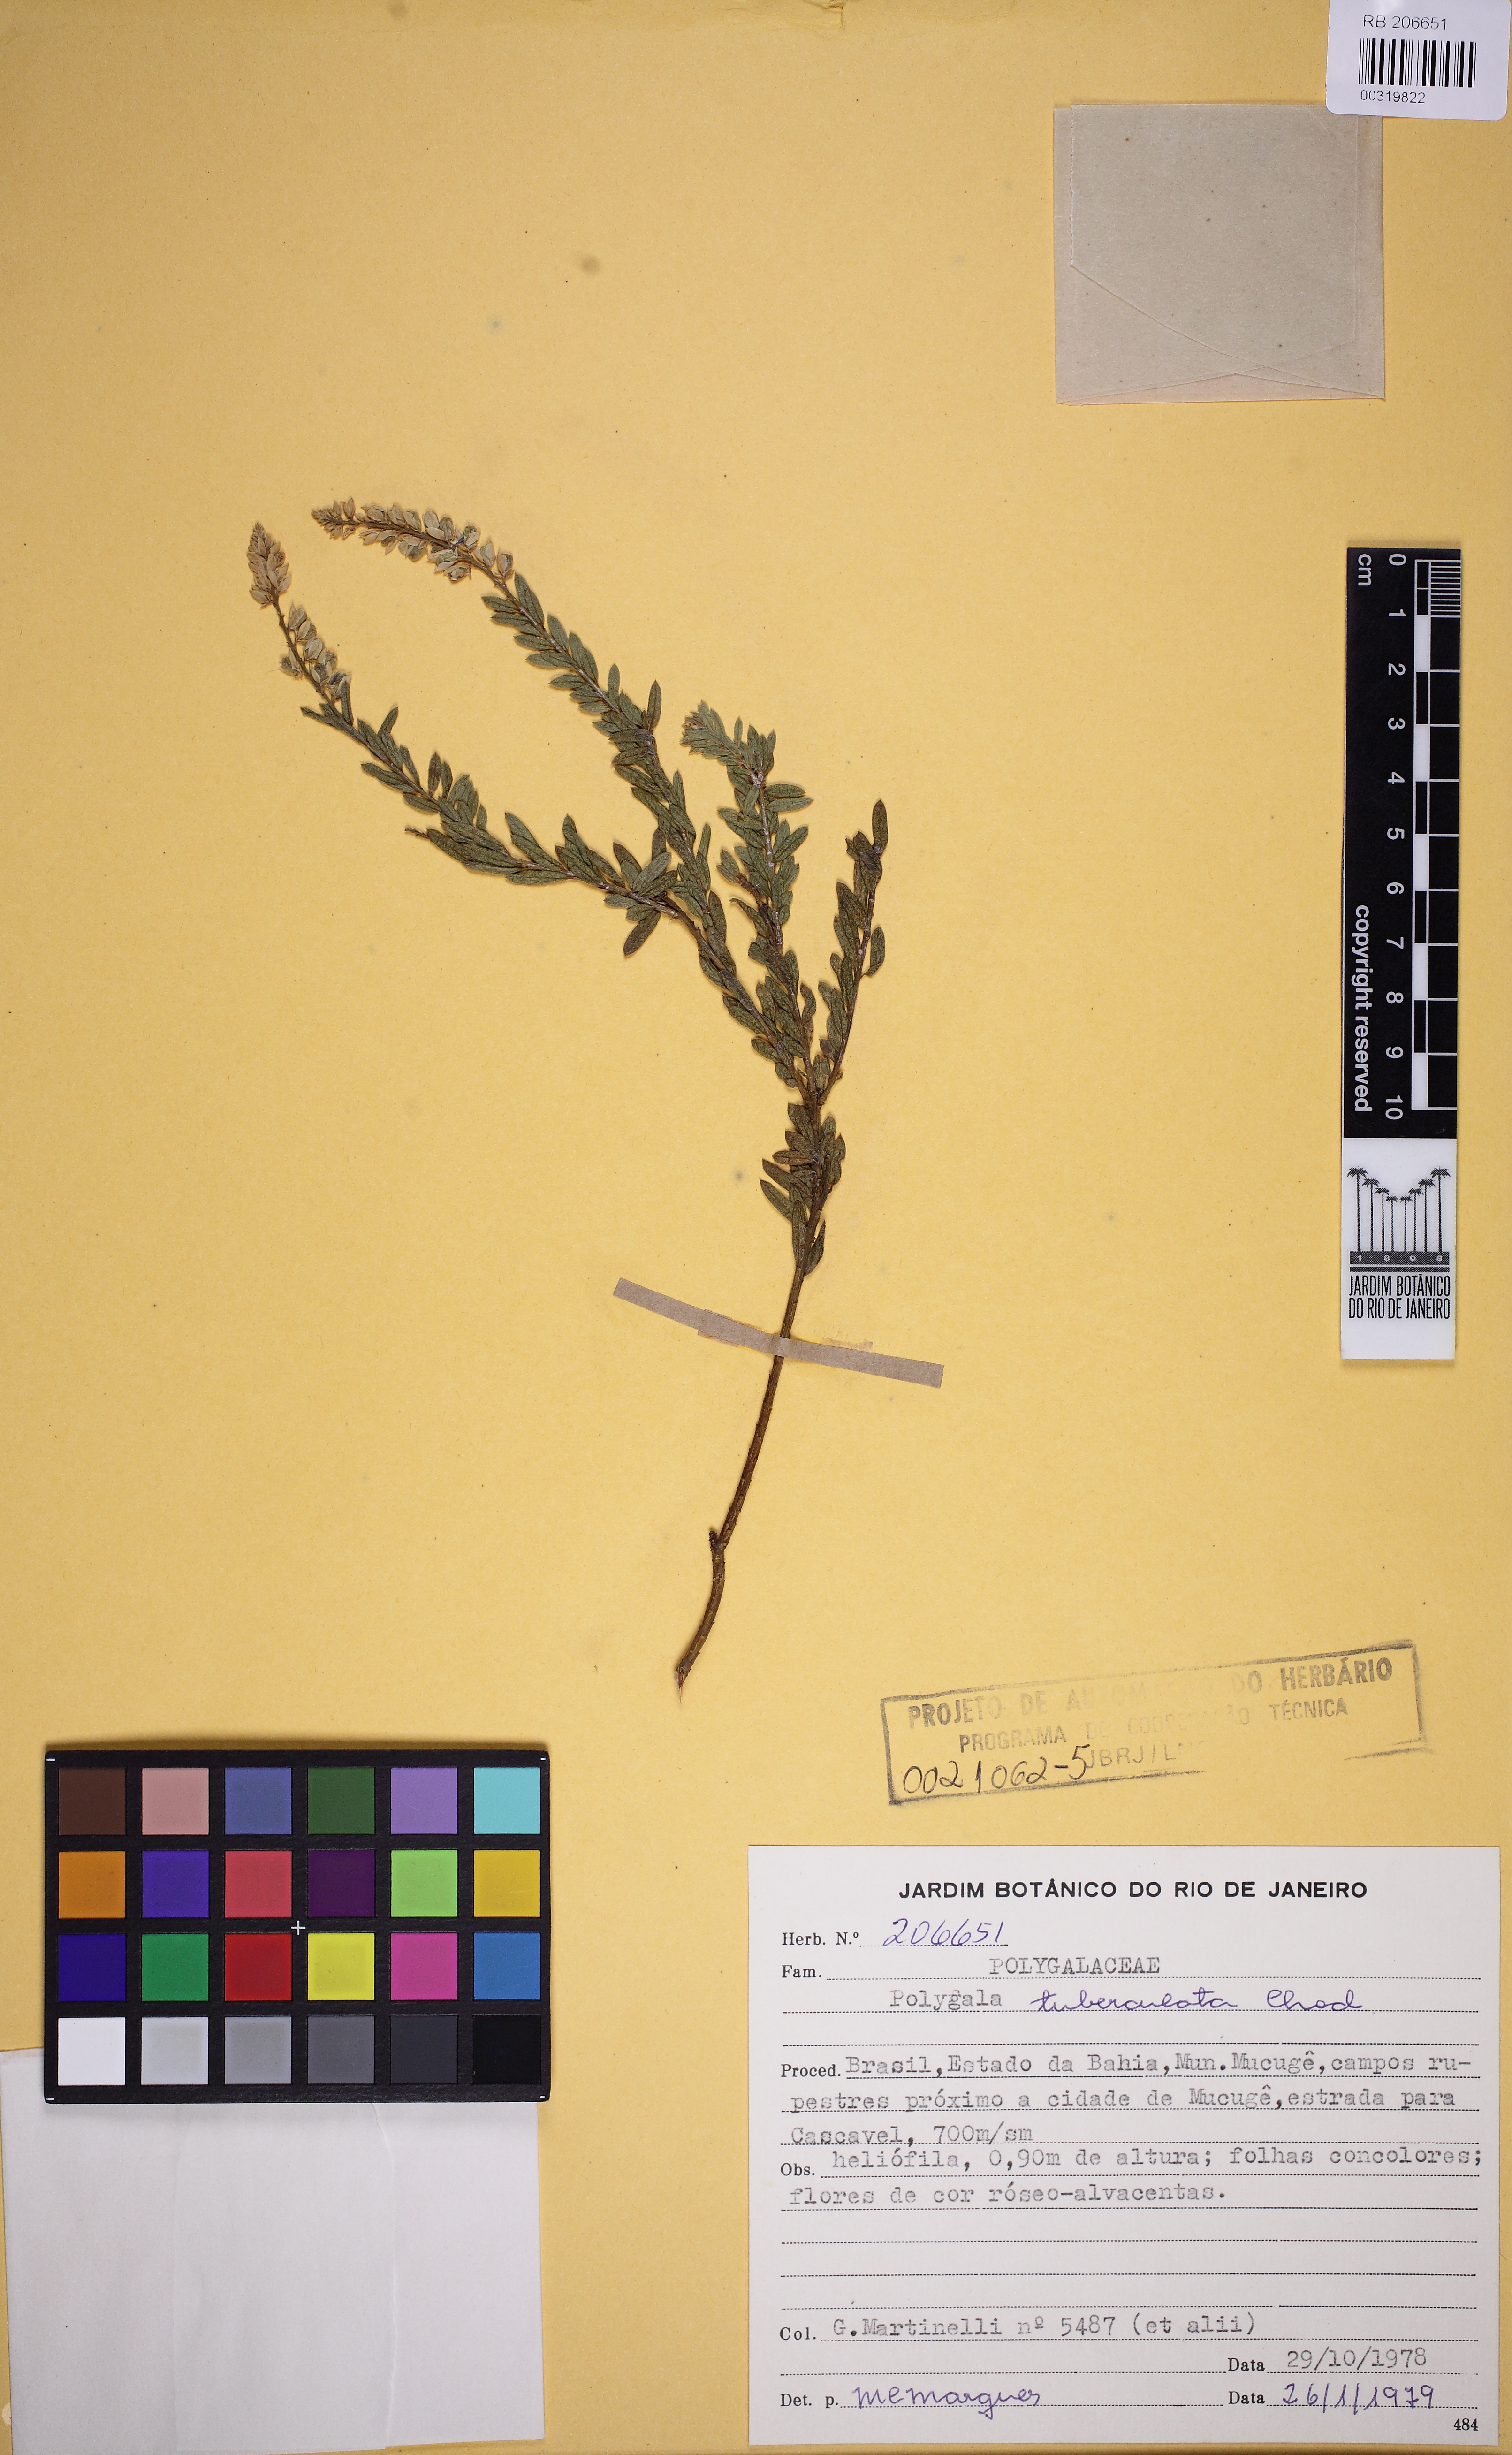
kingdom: Plantae
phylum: Tracheophyta
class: Magnoliopsida
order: Fabales
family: Polygalaceae
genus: Polygala
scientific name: Polygala tuberculata
